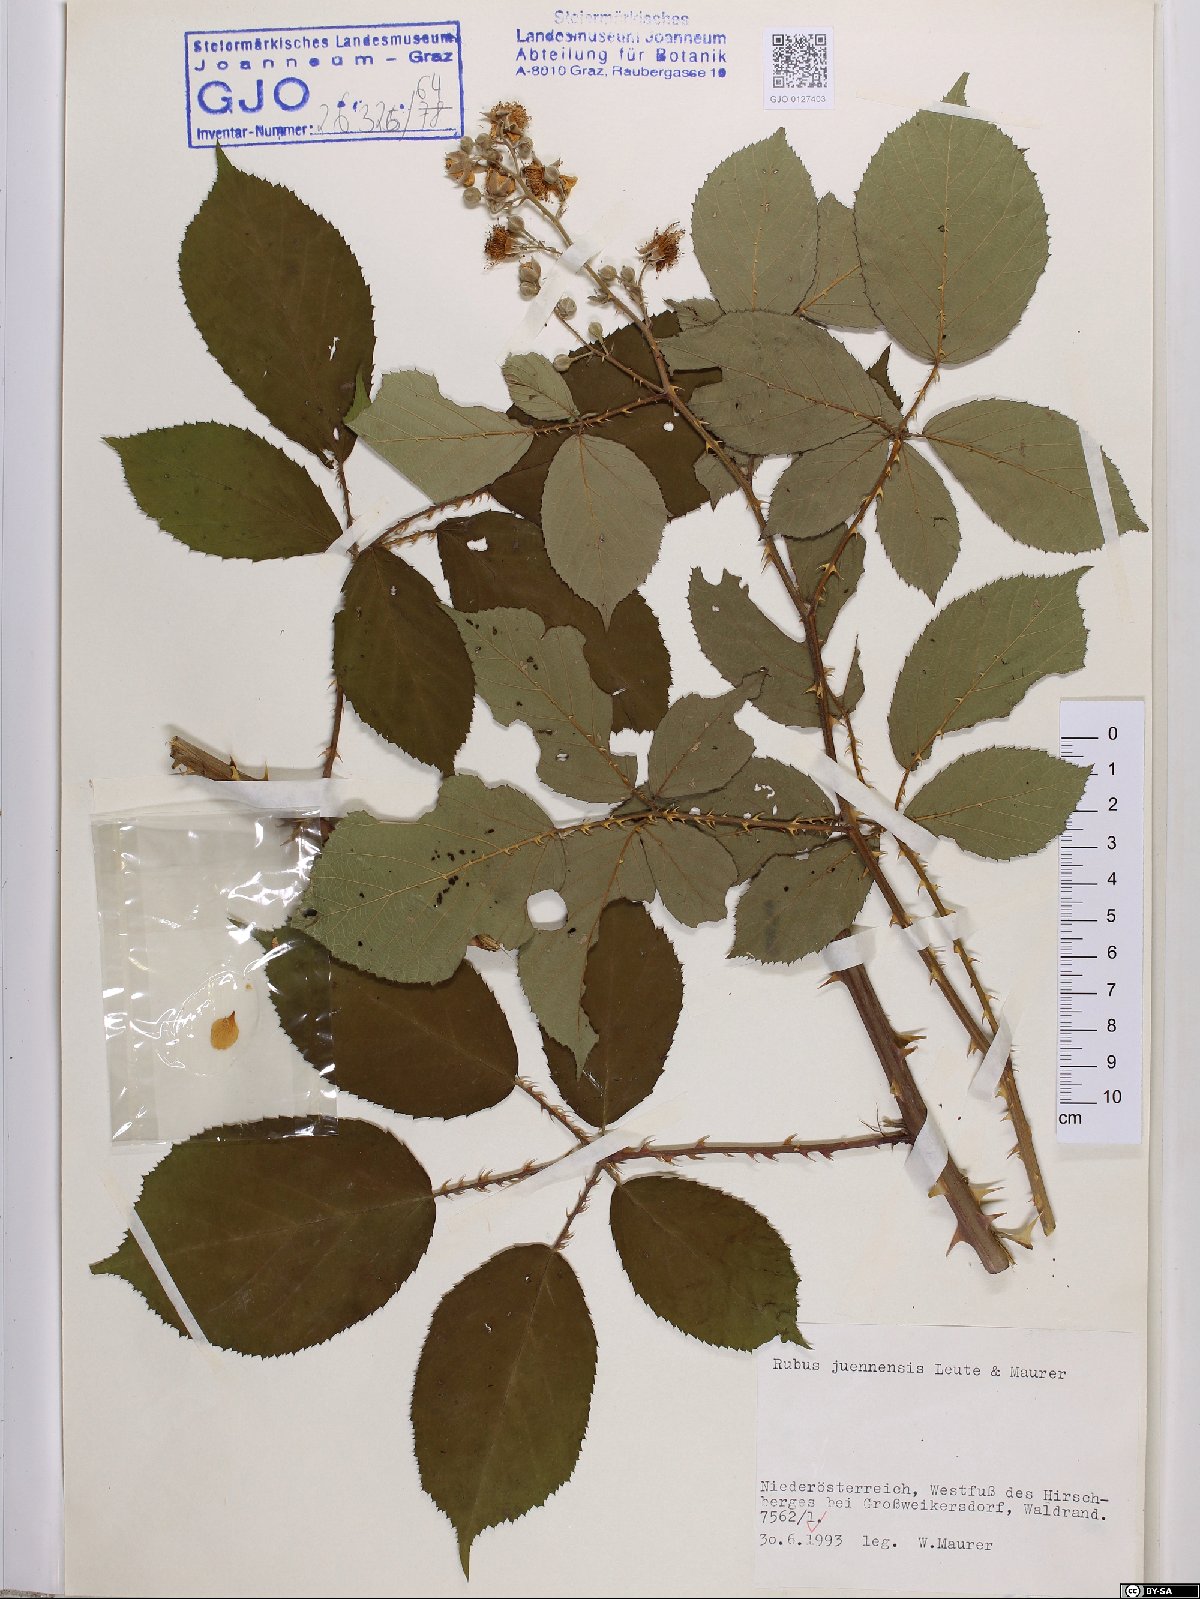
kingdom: Plantae
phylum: Tracheophyta
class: Magnoliopsida
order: Rosales
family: Rosaceae
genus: Rubus
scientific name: Rubus juennensis
